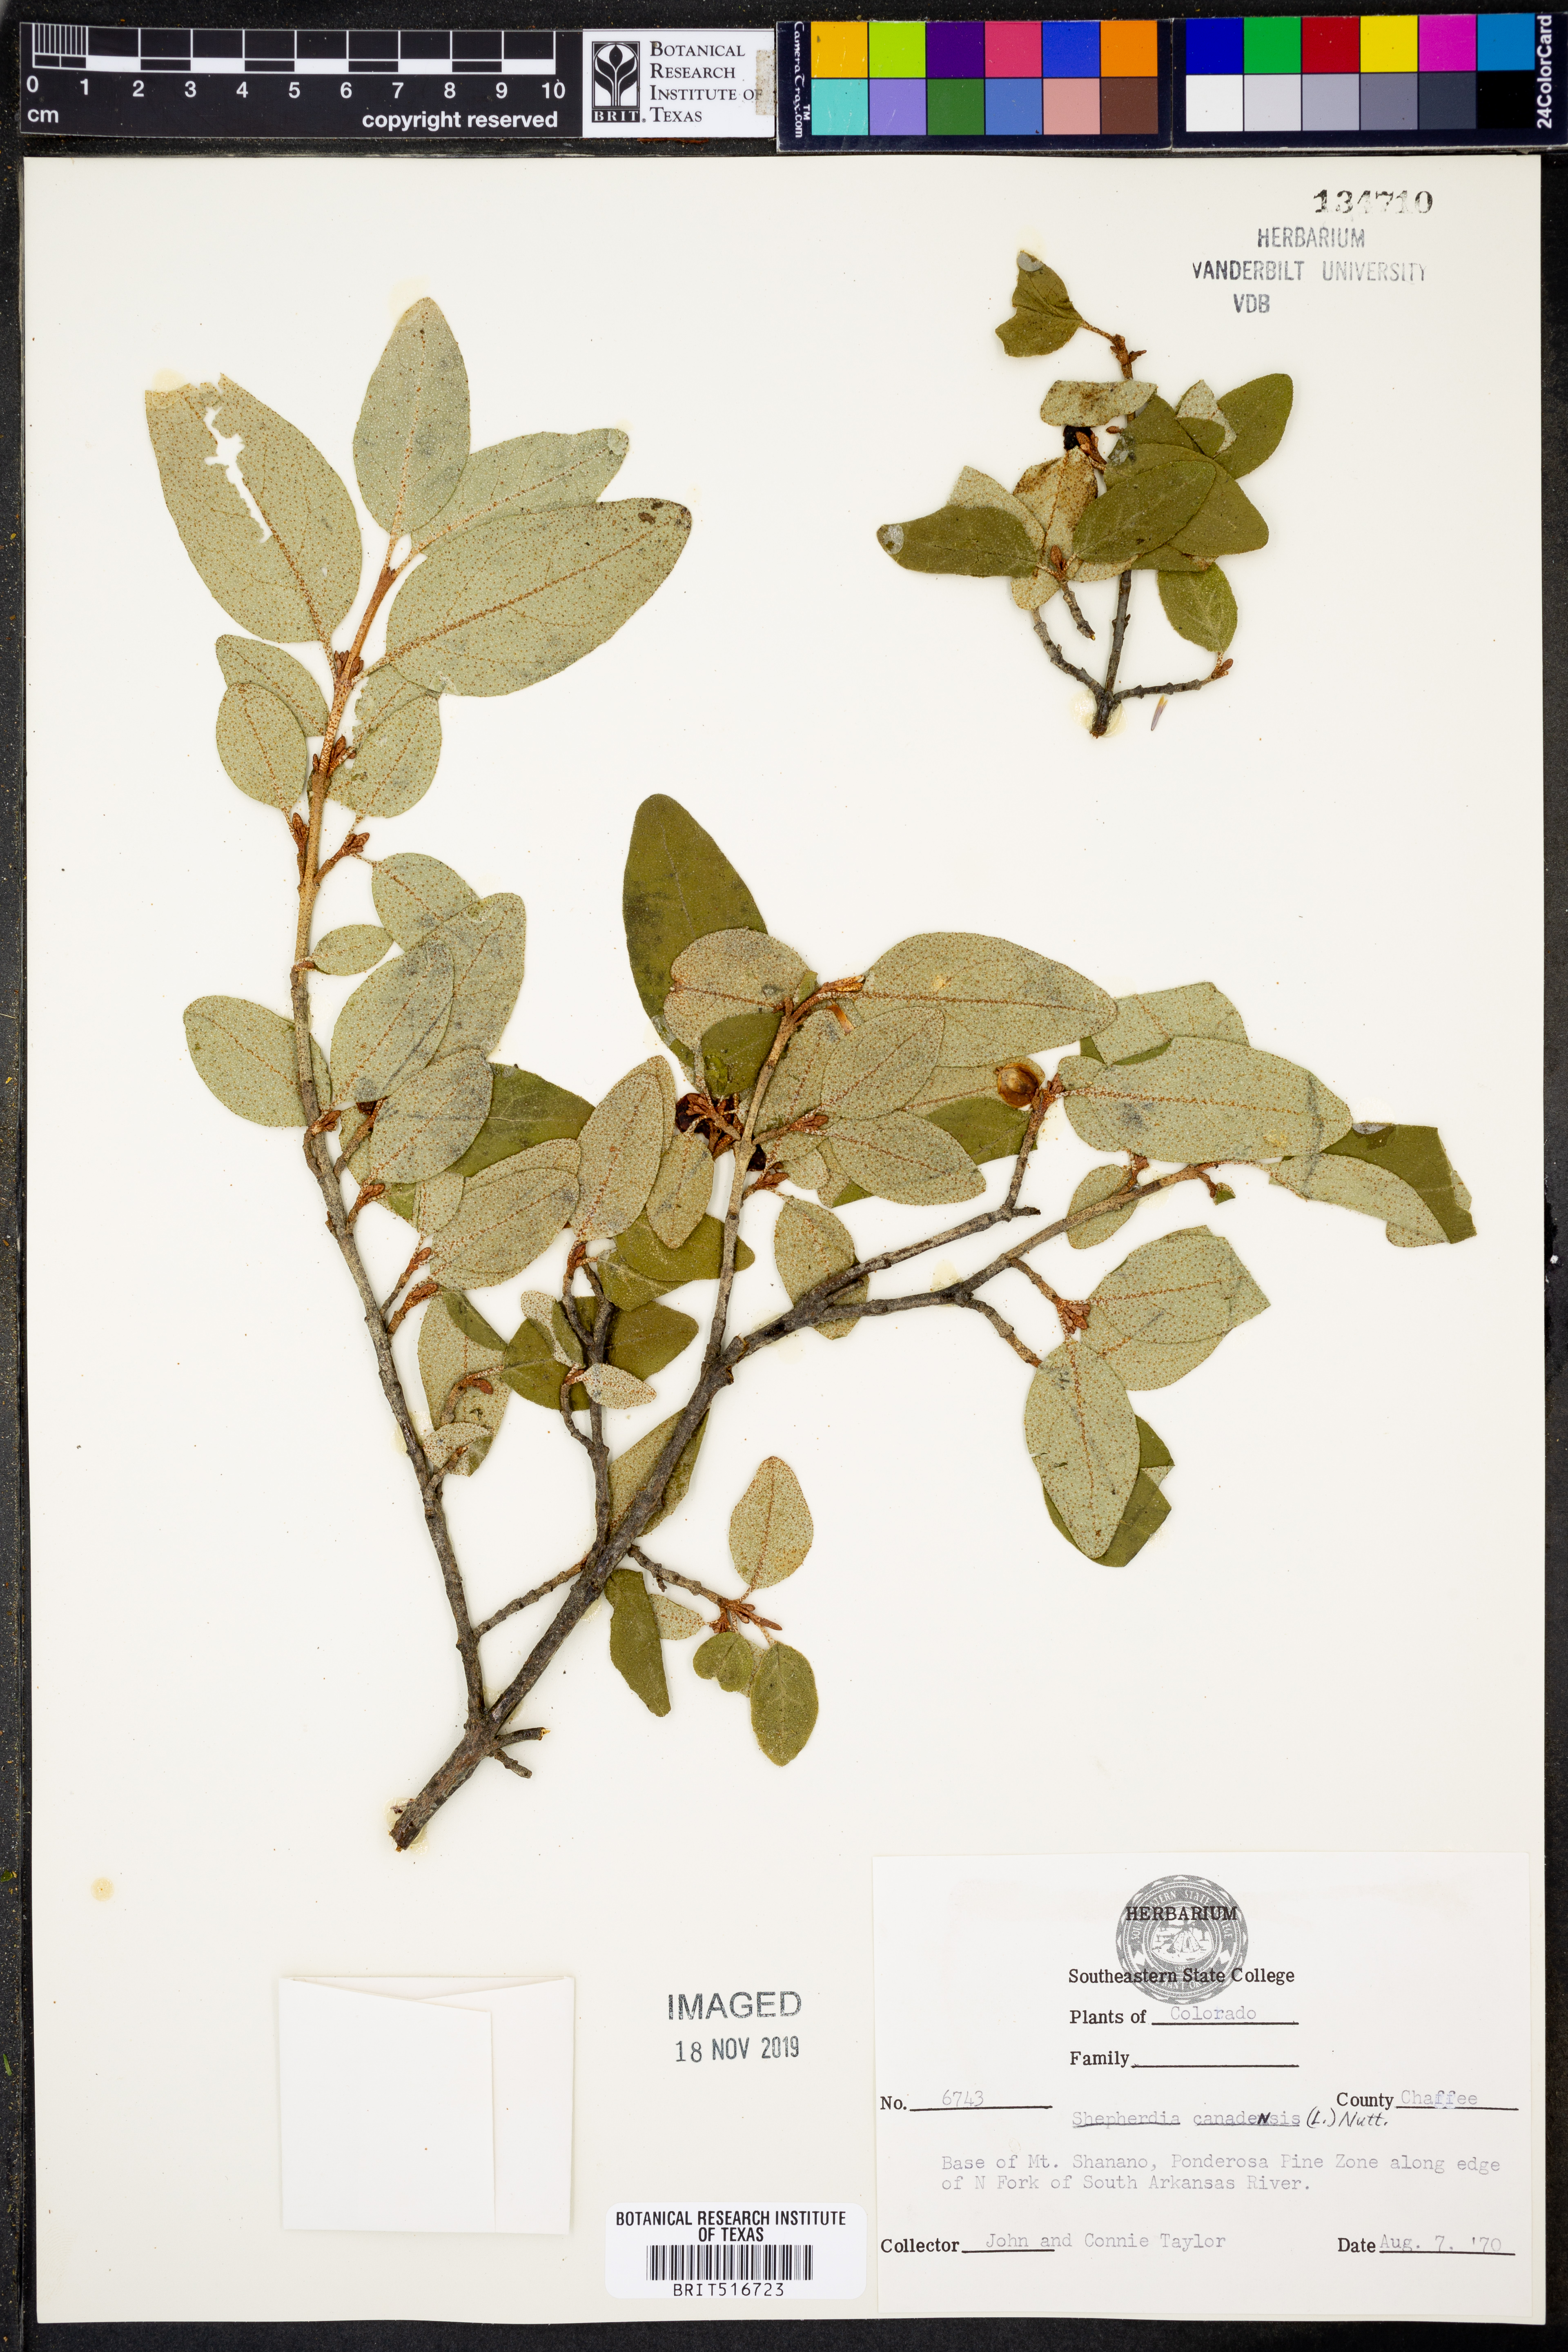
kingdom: Plantae
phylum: Tracheophyta
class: Magnoliopsida
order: Rosales
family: Elaeagnaceae
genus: Shepherdia
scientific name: Shepherdia canadensis
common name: Soapberry
